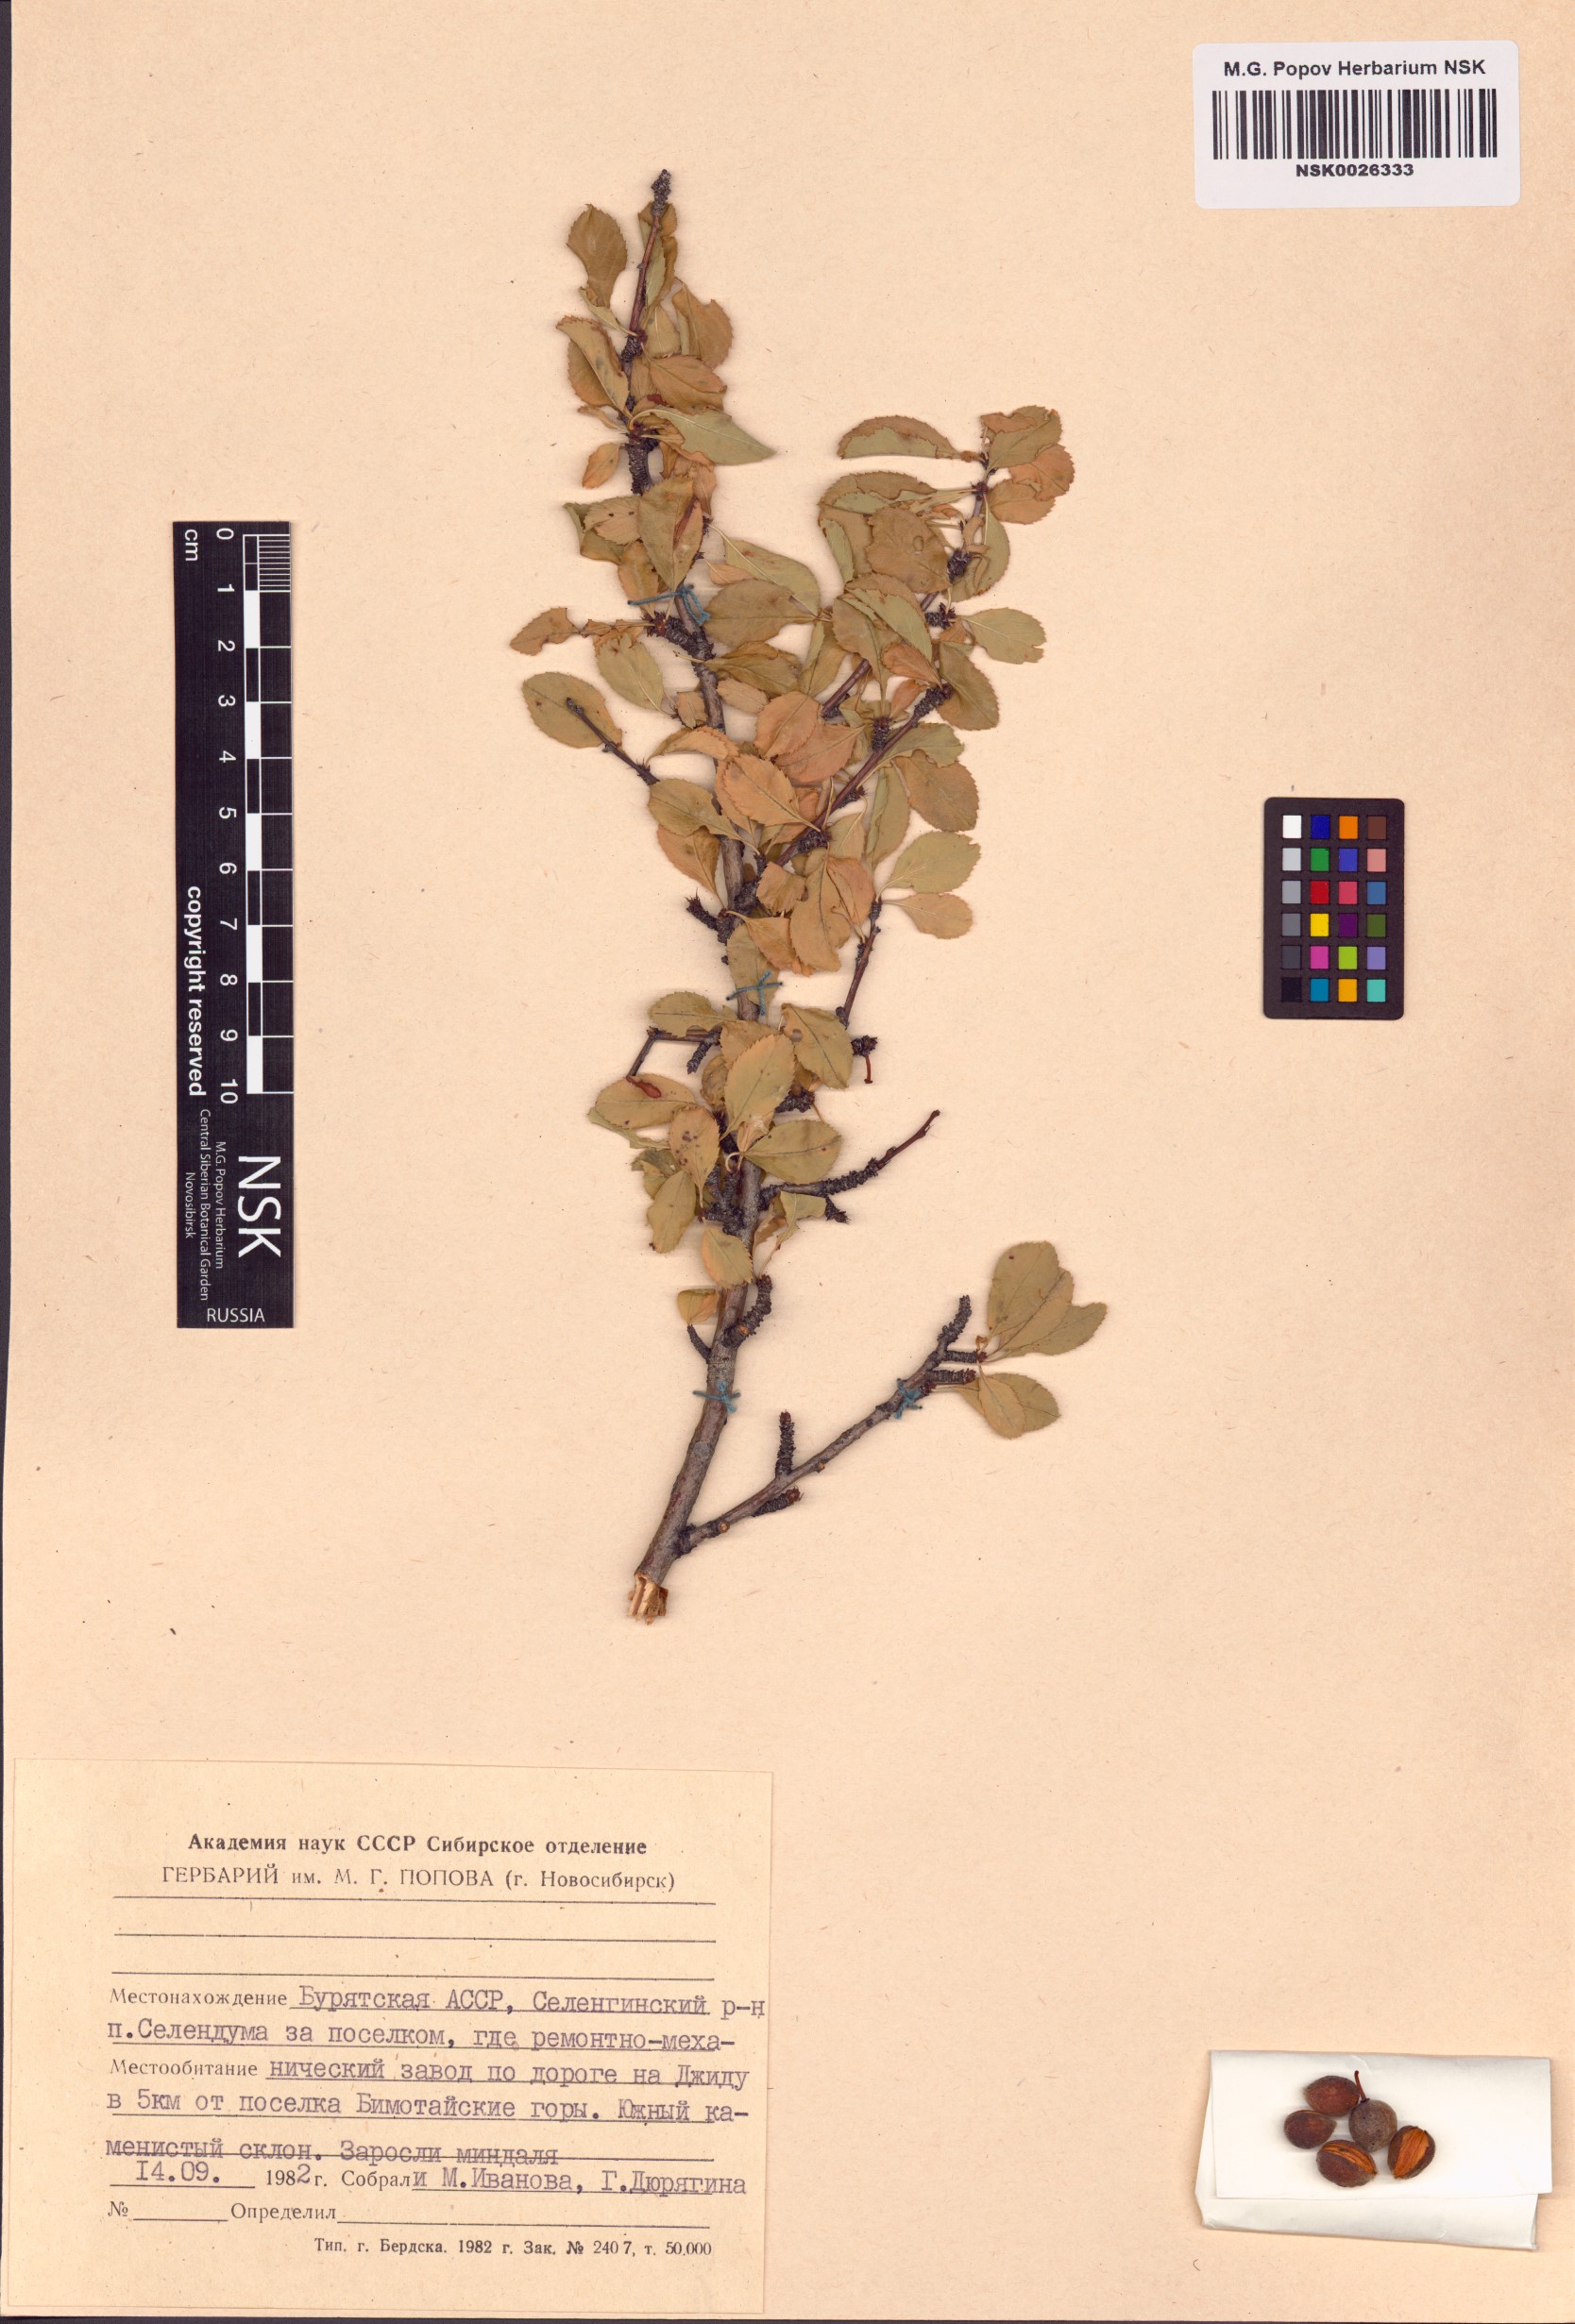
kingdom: Plantae
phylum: Tracheophyta
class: Magnoliopsida
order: Rosales
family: Rosaceae
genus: Prunus
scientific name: Prunus pedunculata
